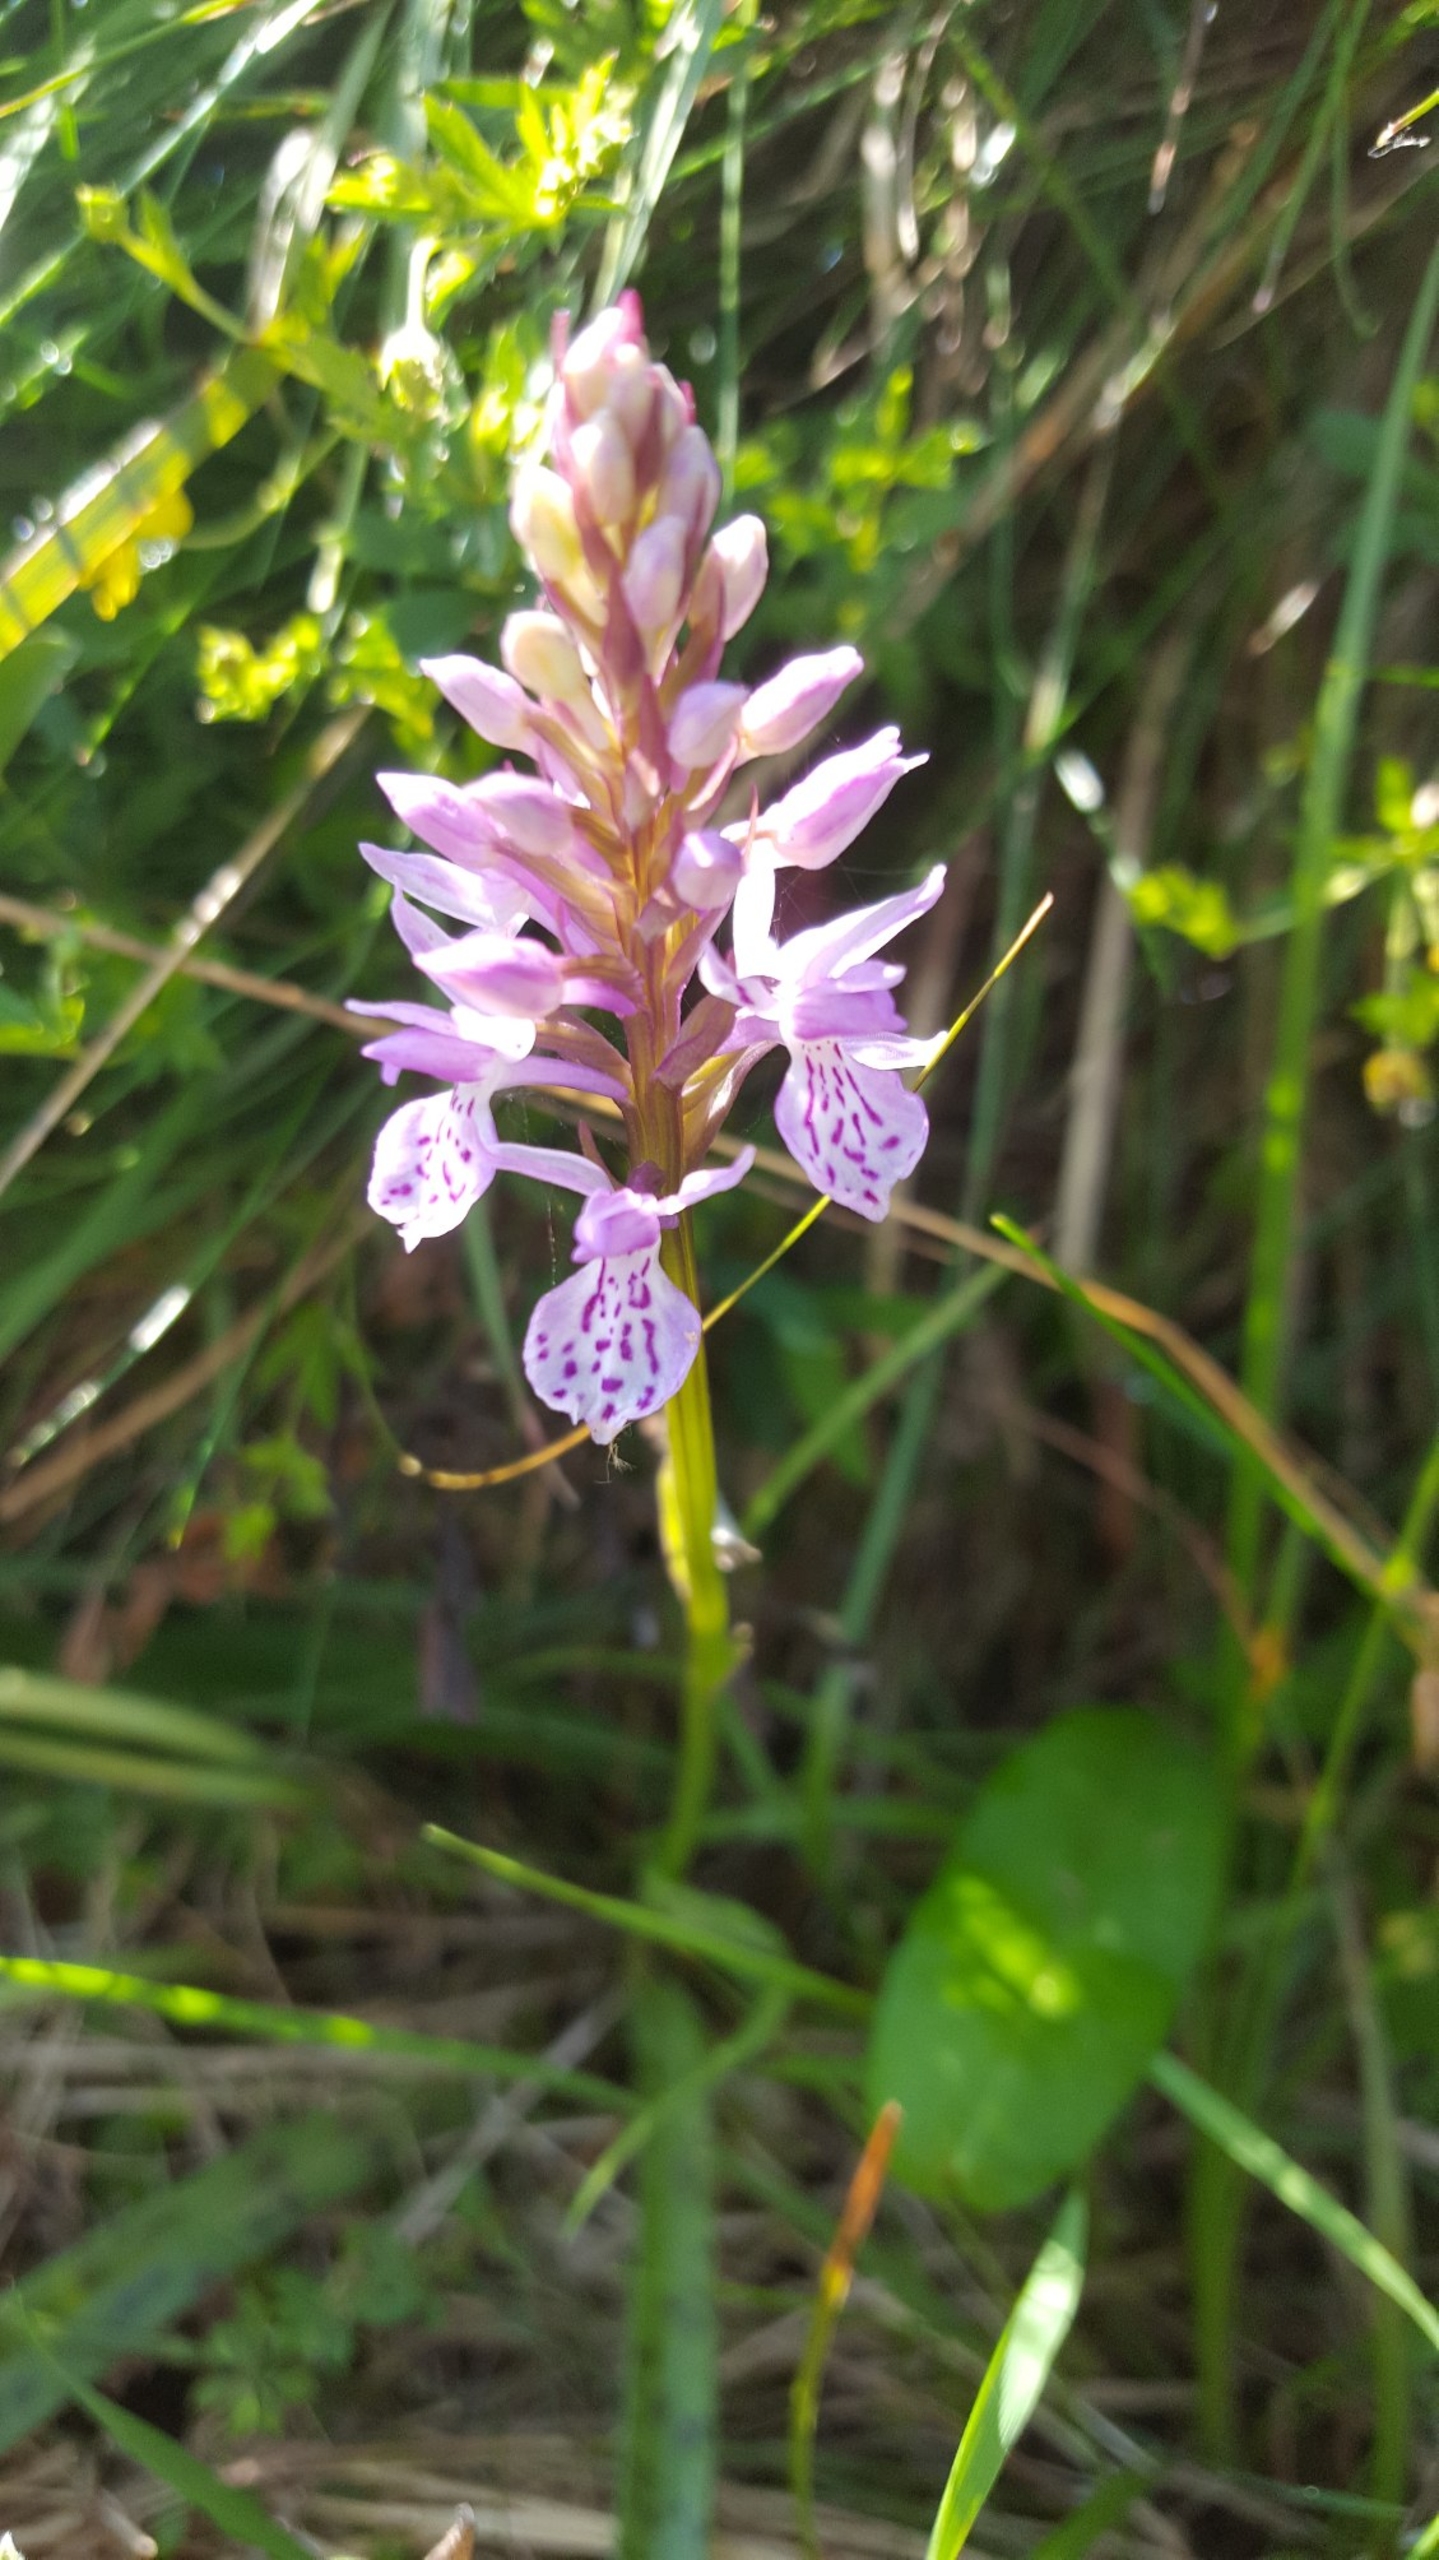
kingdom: Plantae
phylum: Tracheophyta
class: Liliopsida
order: Asparagales
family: Orchidaceae
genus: Dactylorhiza
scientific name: Dactylorhiza maculata
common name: Plettet gøgeurt
